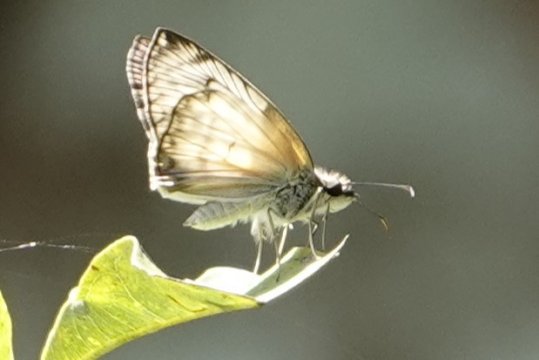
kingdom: Animalia
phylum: Arthropoda
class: Insecta
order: Lepidoptera
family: Hesperiidae
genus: Mylon
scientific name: Mylon pelopidas
